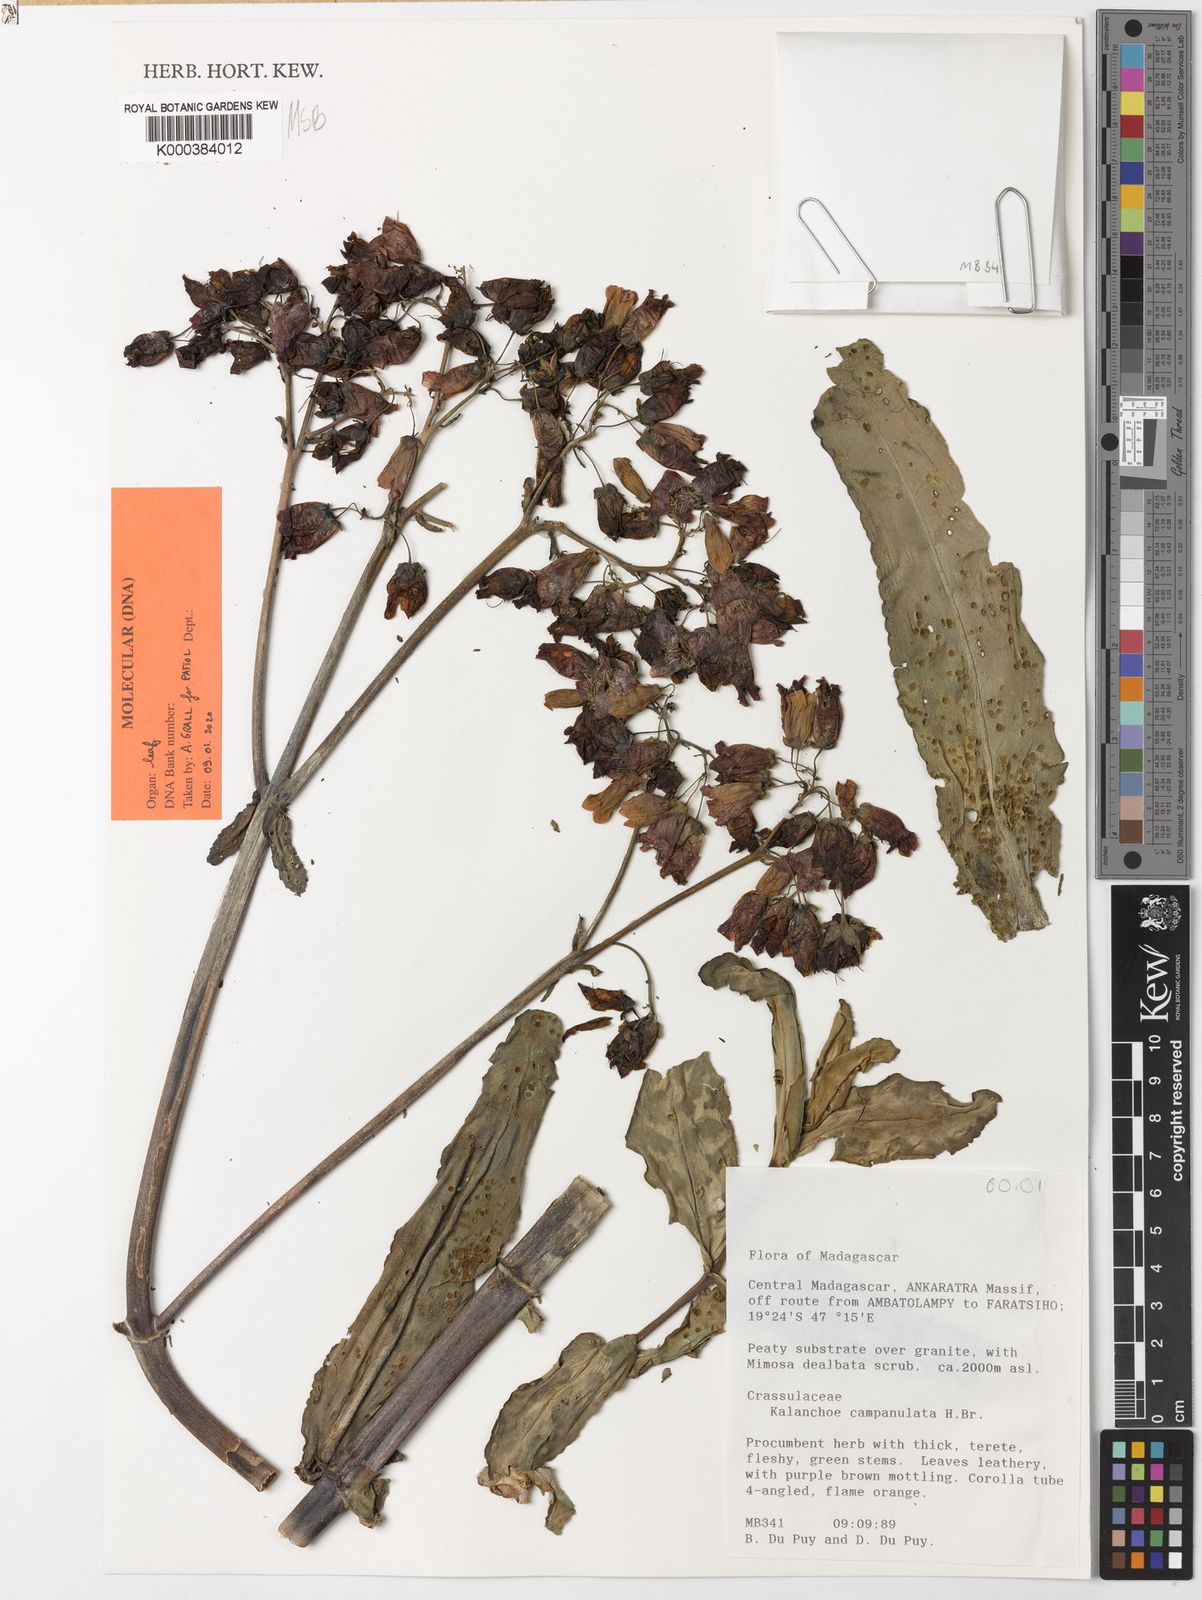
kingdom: Plantae
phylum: Tracheophyta
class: Magnoliopsida
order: Saxifragales
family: Crassulaceae
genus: Kalanchoe
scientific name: Kalanchoe campanulata
